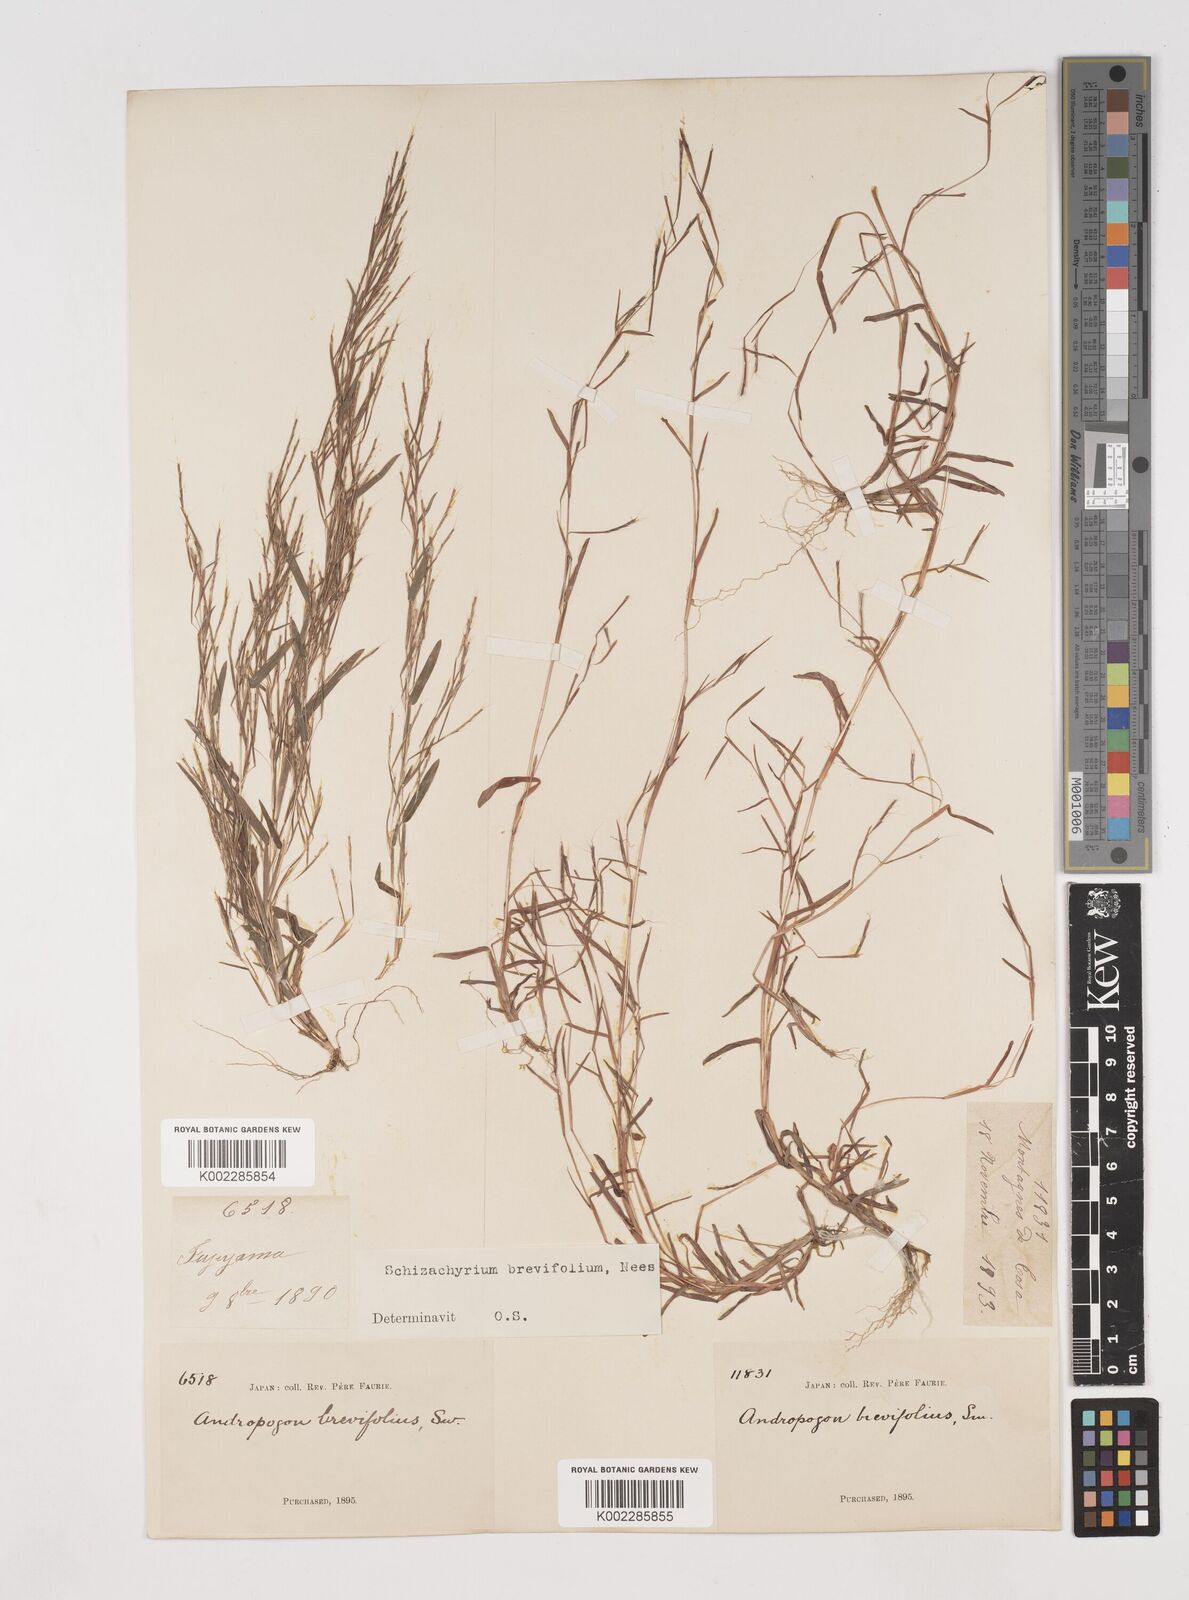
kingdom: Plantae
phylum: Tracheophyta
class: Liliopsida
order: Poales
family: Poaceae
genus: Schizachyrium
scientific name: Schizachyrium brevifolium
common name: Serillo dulce
